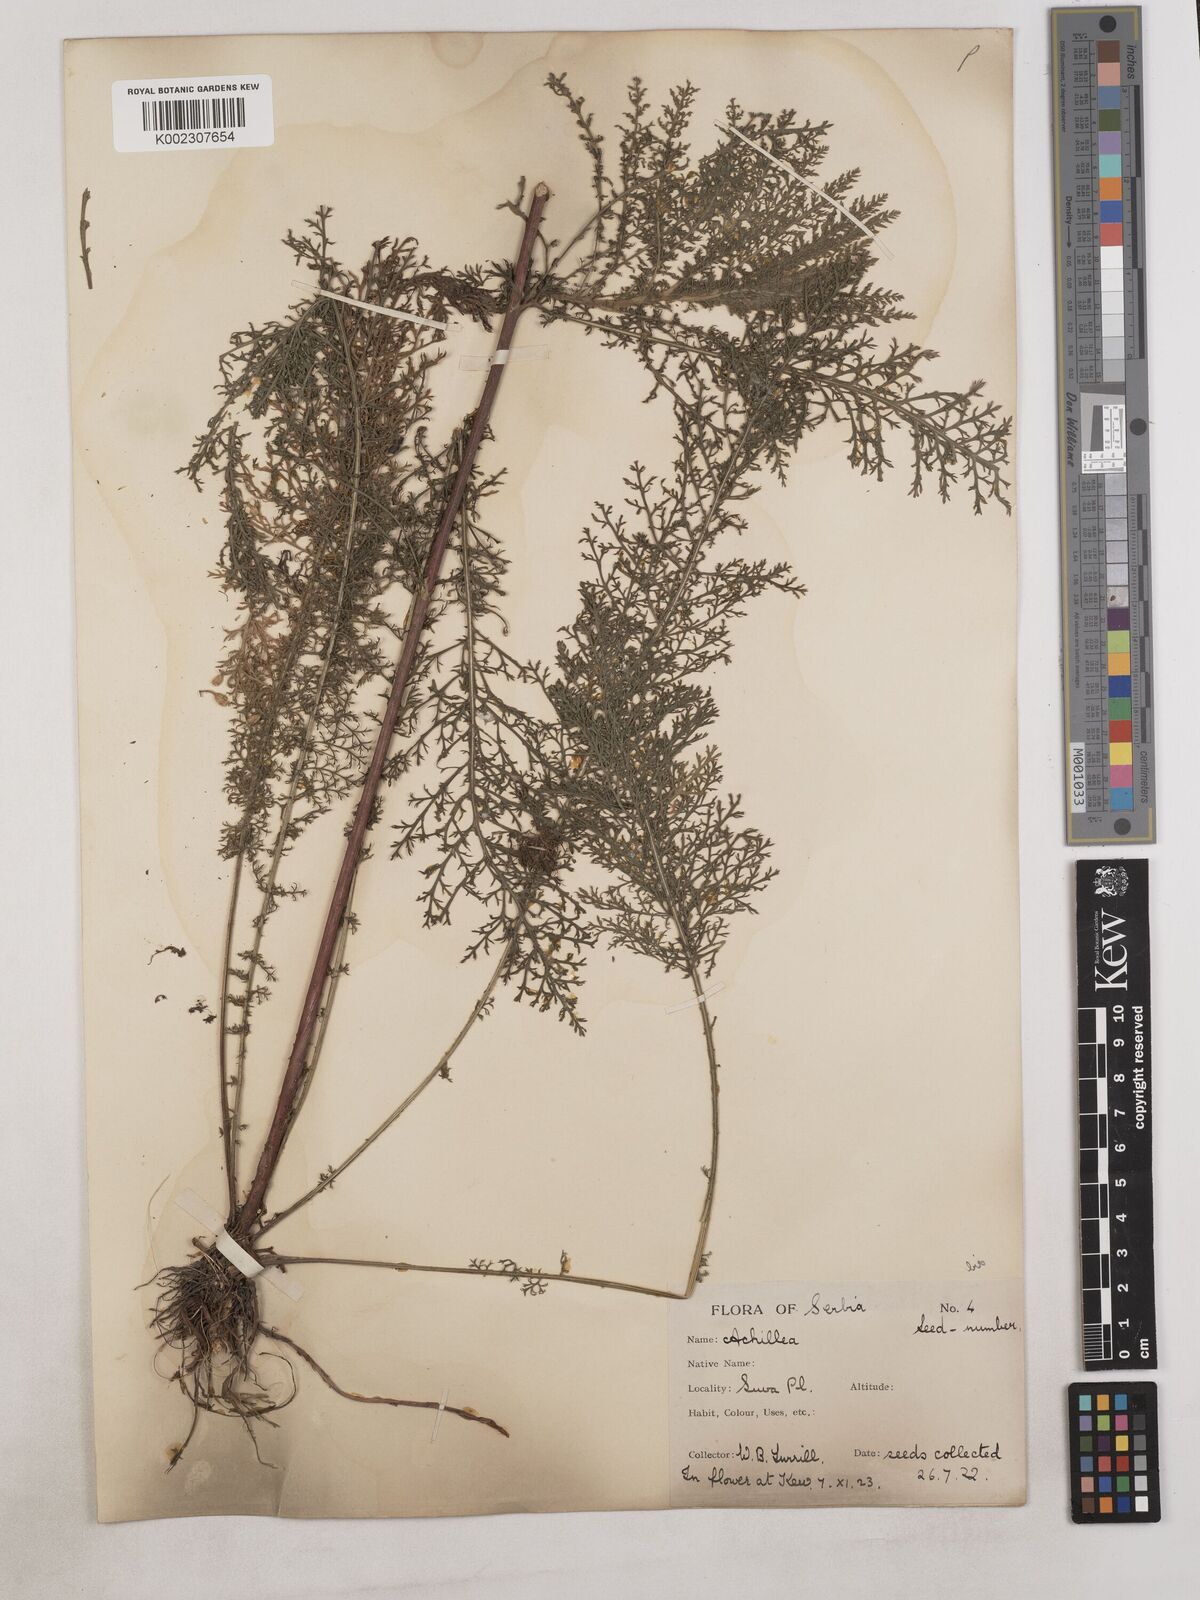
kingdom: Plantae
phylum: Tracheophyta
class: Magnoliopsida
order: Asterales
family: Asteraceae
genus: Achillea
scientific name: Achillea
